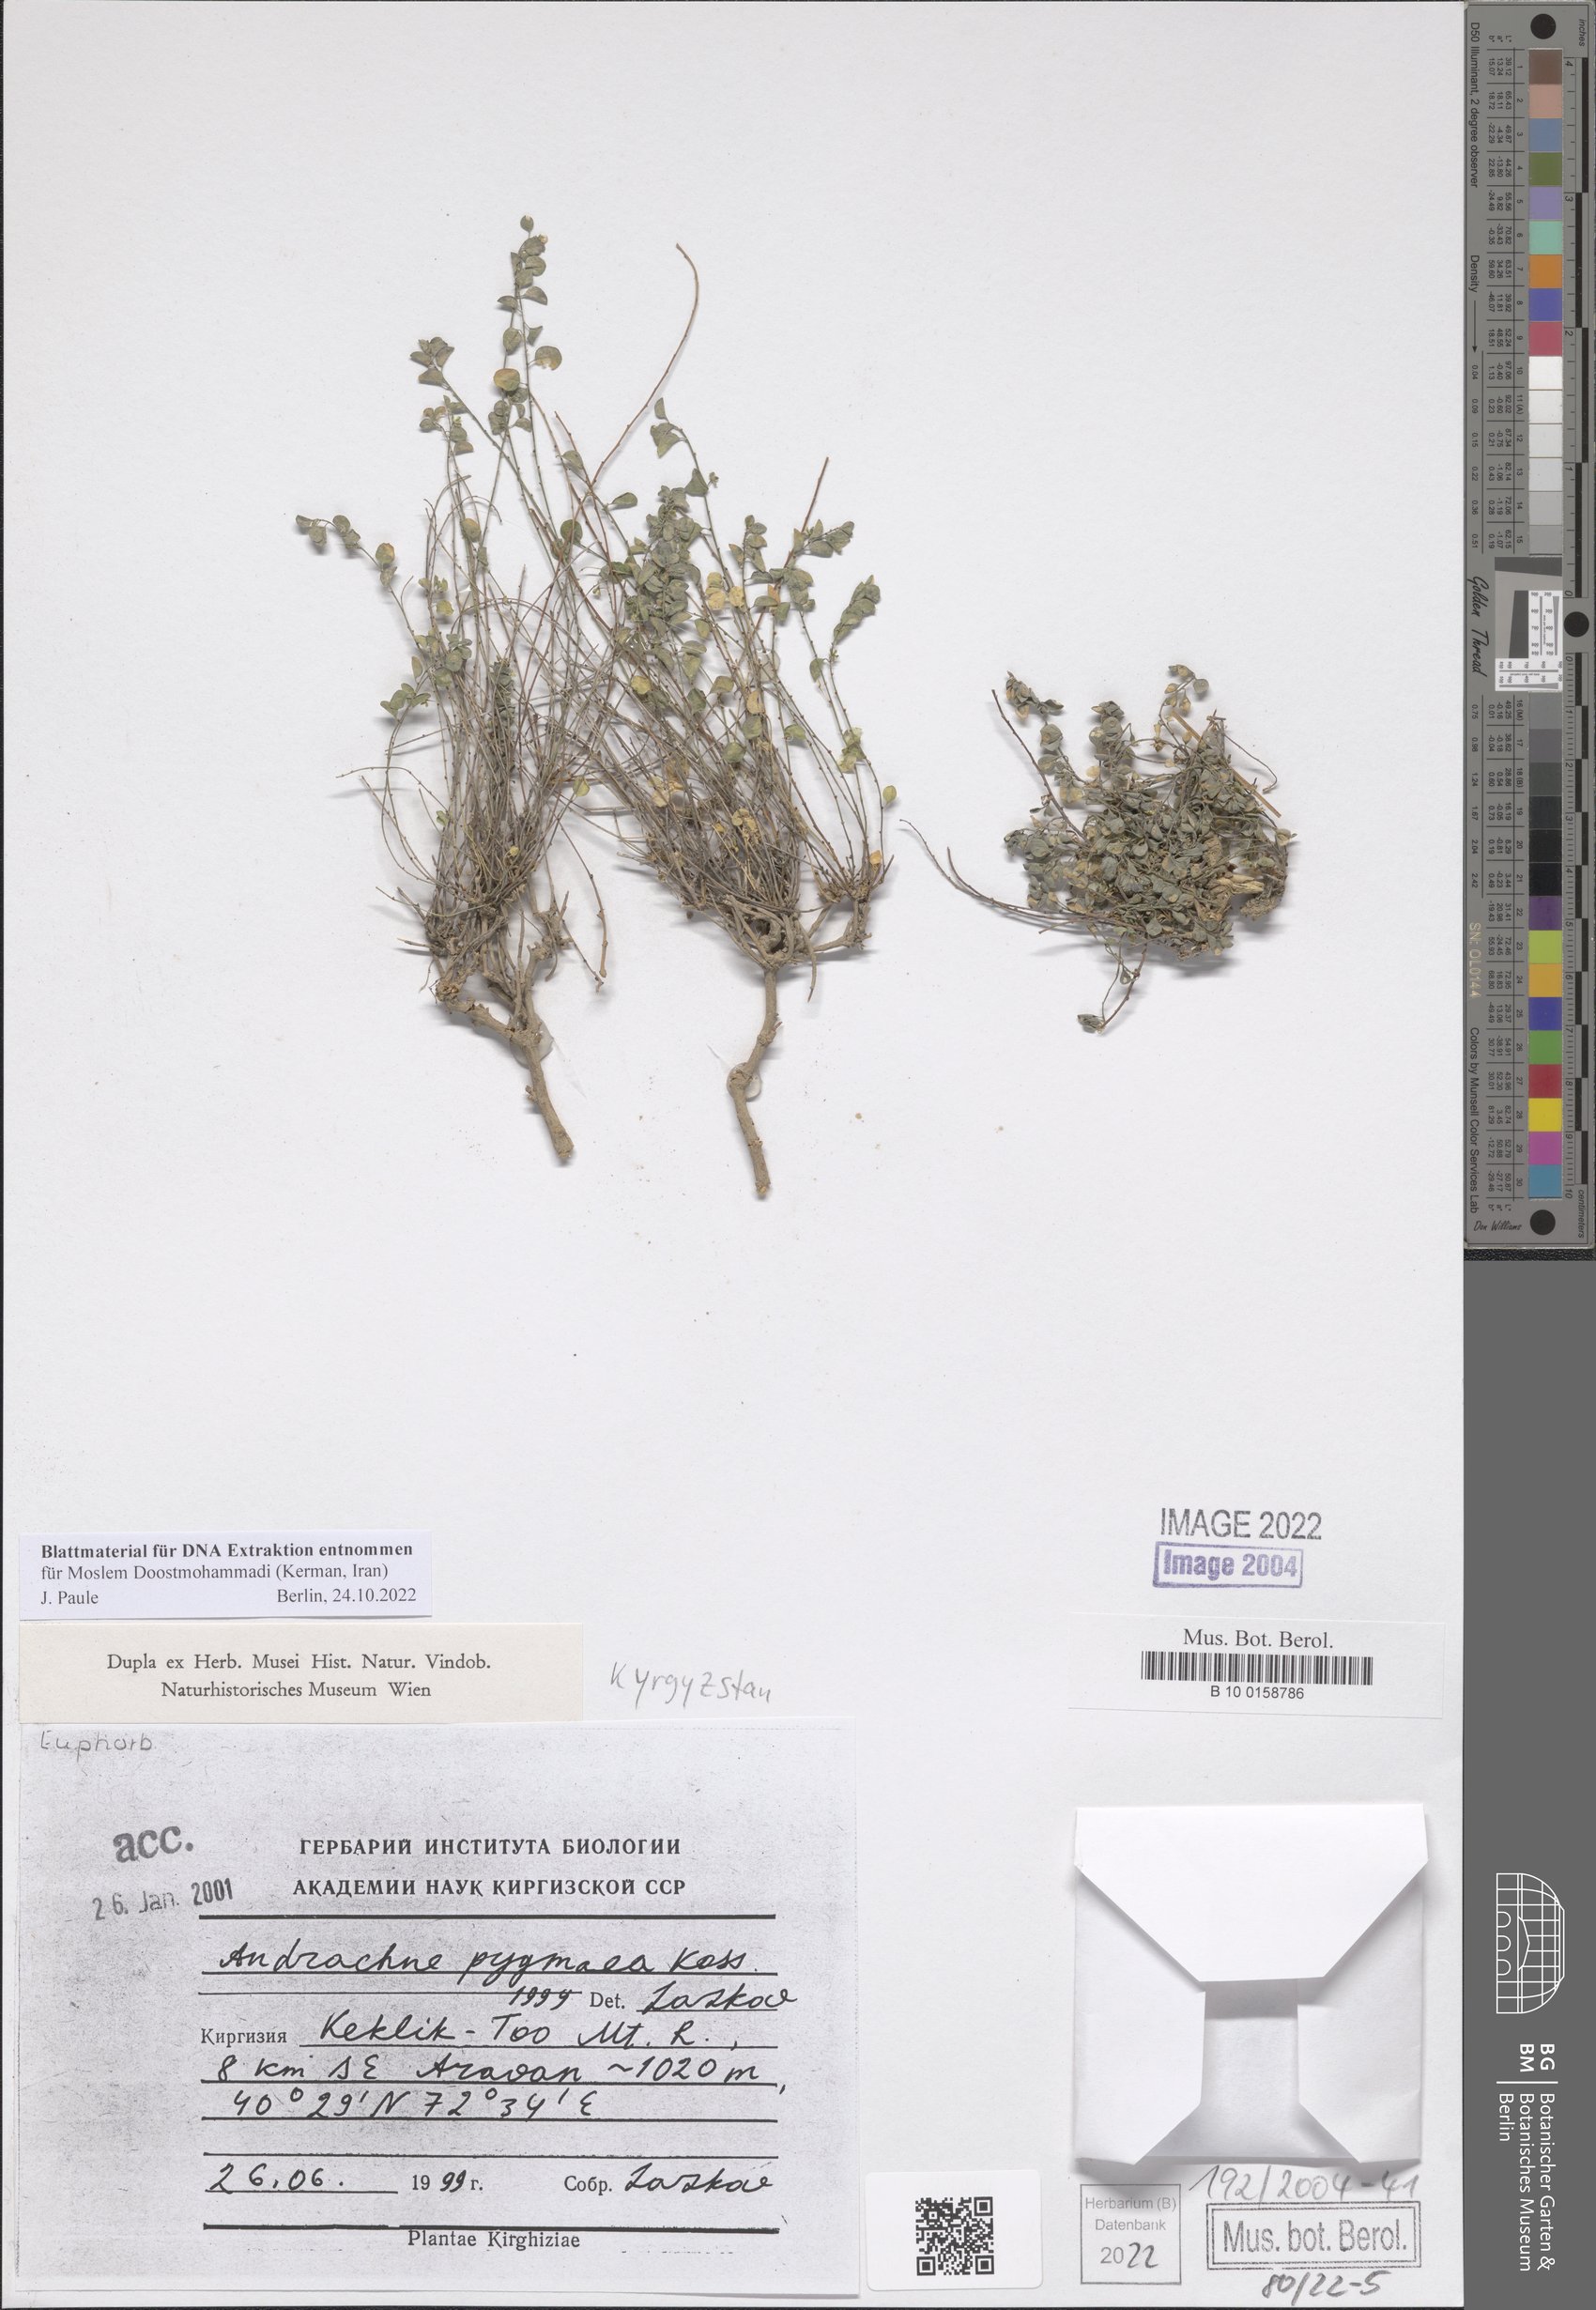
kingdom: Plantae
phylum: Tracheophyta
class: Magnoliopsida
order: Malpighiales
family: Phyllanthaceae
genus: Andrachne
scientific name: Andrachne pygmaea
